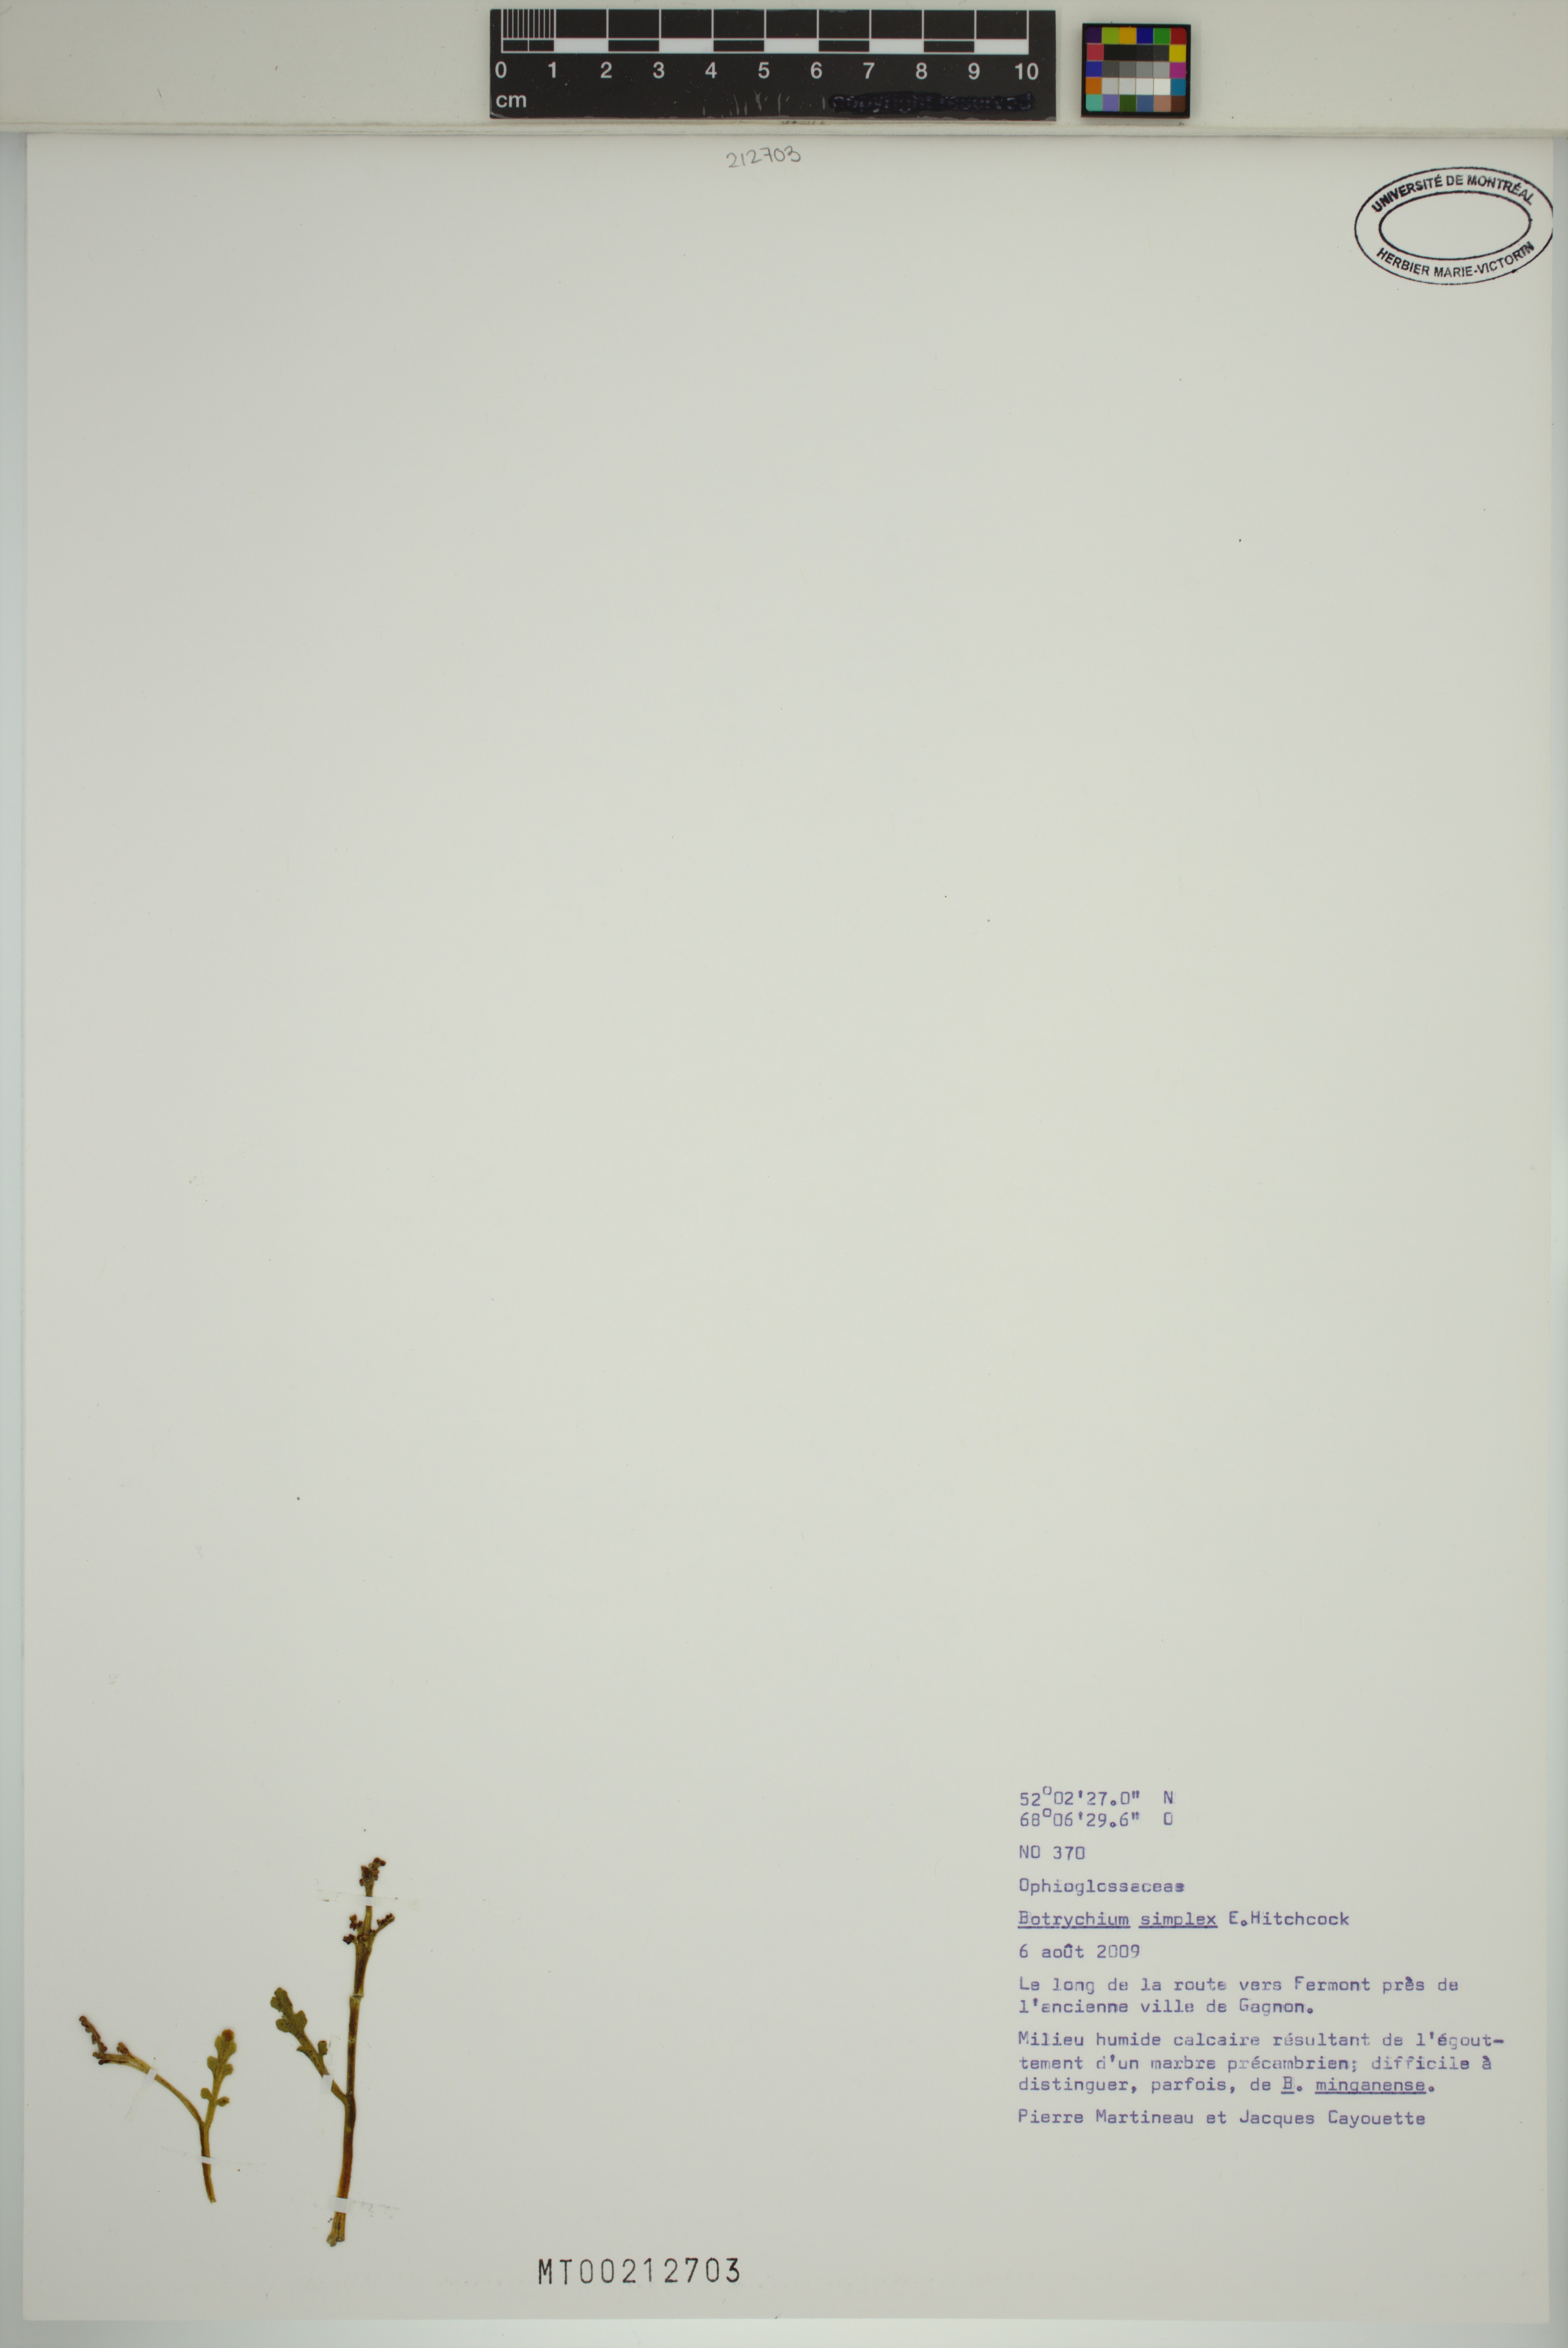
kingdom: Plantae
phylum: Tracheophyta
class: Polypodiopsida
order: Ophioglossales
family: Ophioglossaceae
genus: Botrychium
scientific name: Botrychium simplex
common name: Least moonwort
